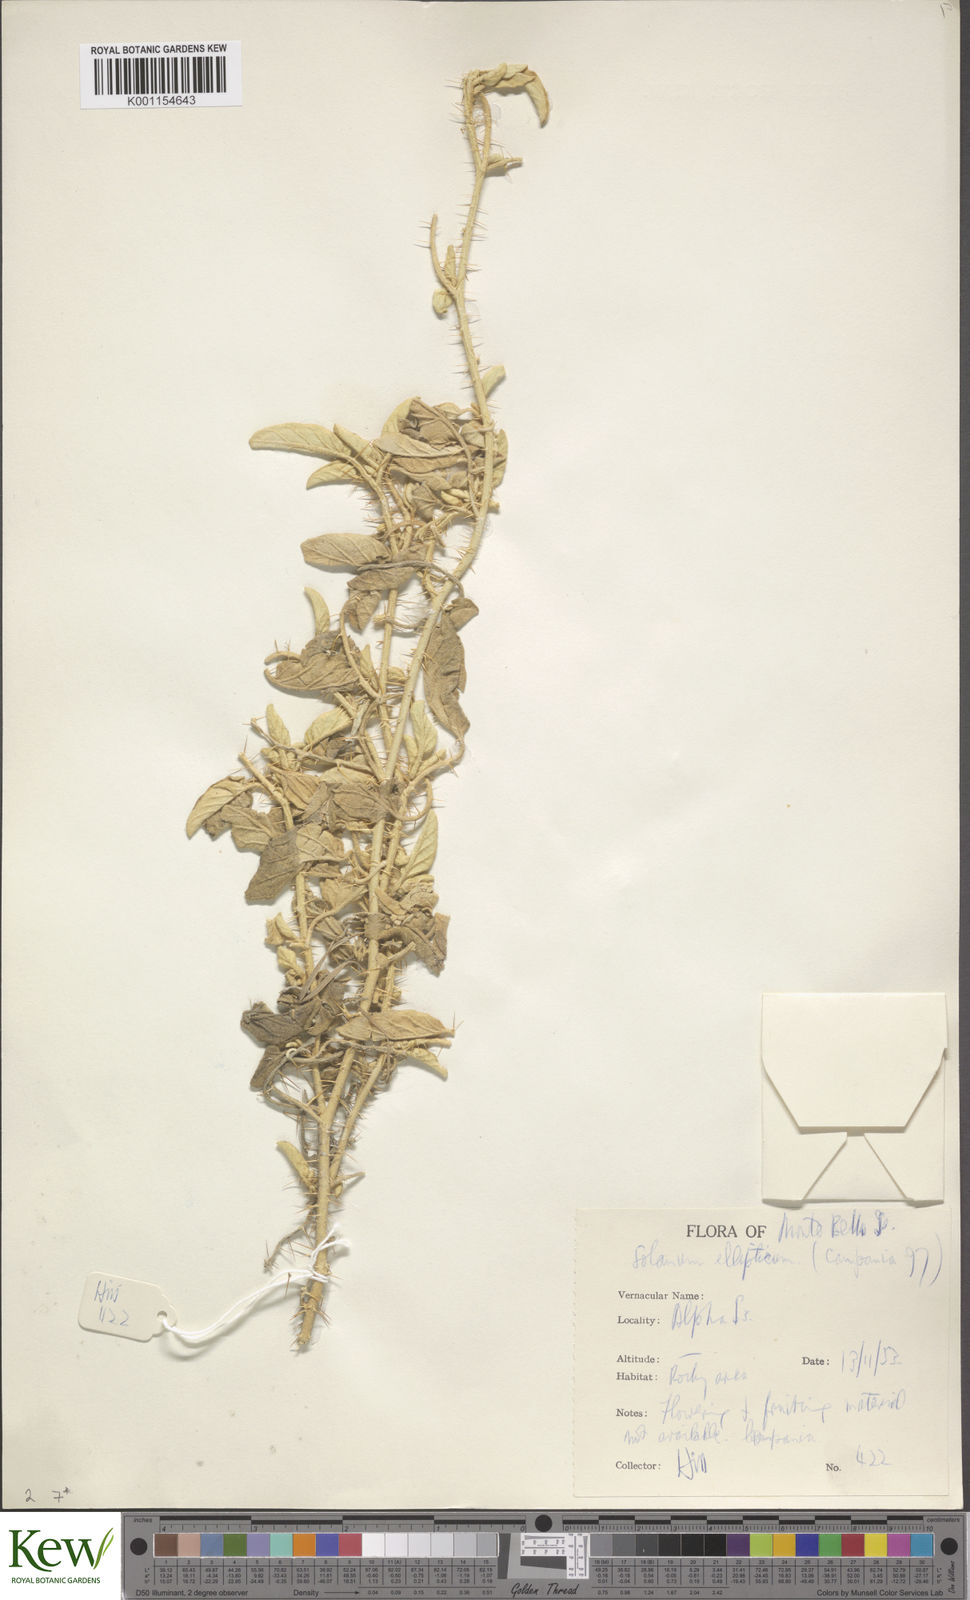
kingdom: Plantae
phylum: Tracheophyta
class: Magnoliopsida
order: Solanales
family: Solanaceae
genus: Solanum
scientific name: Solanum ellipticum
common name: Potato-bush
